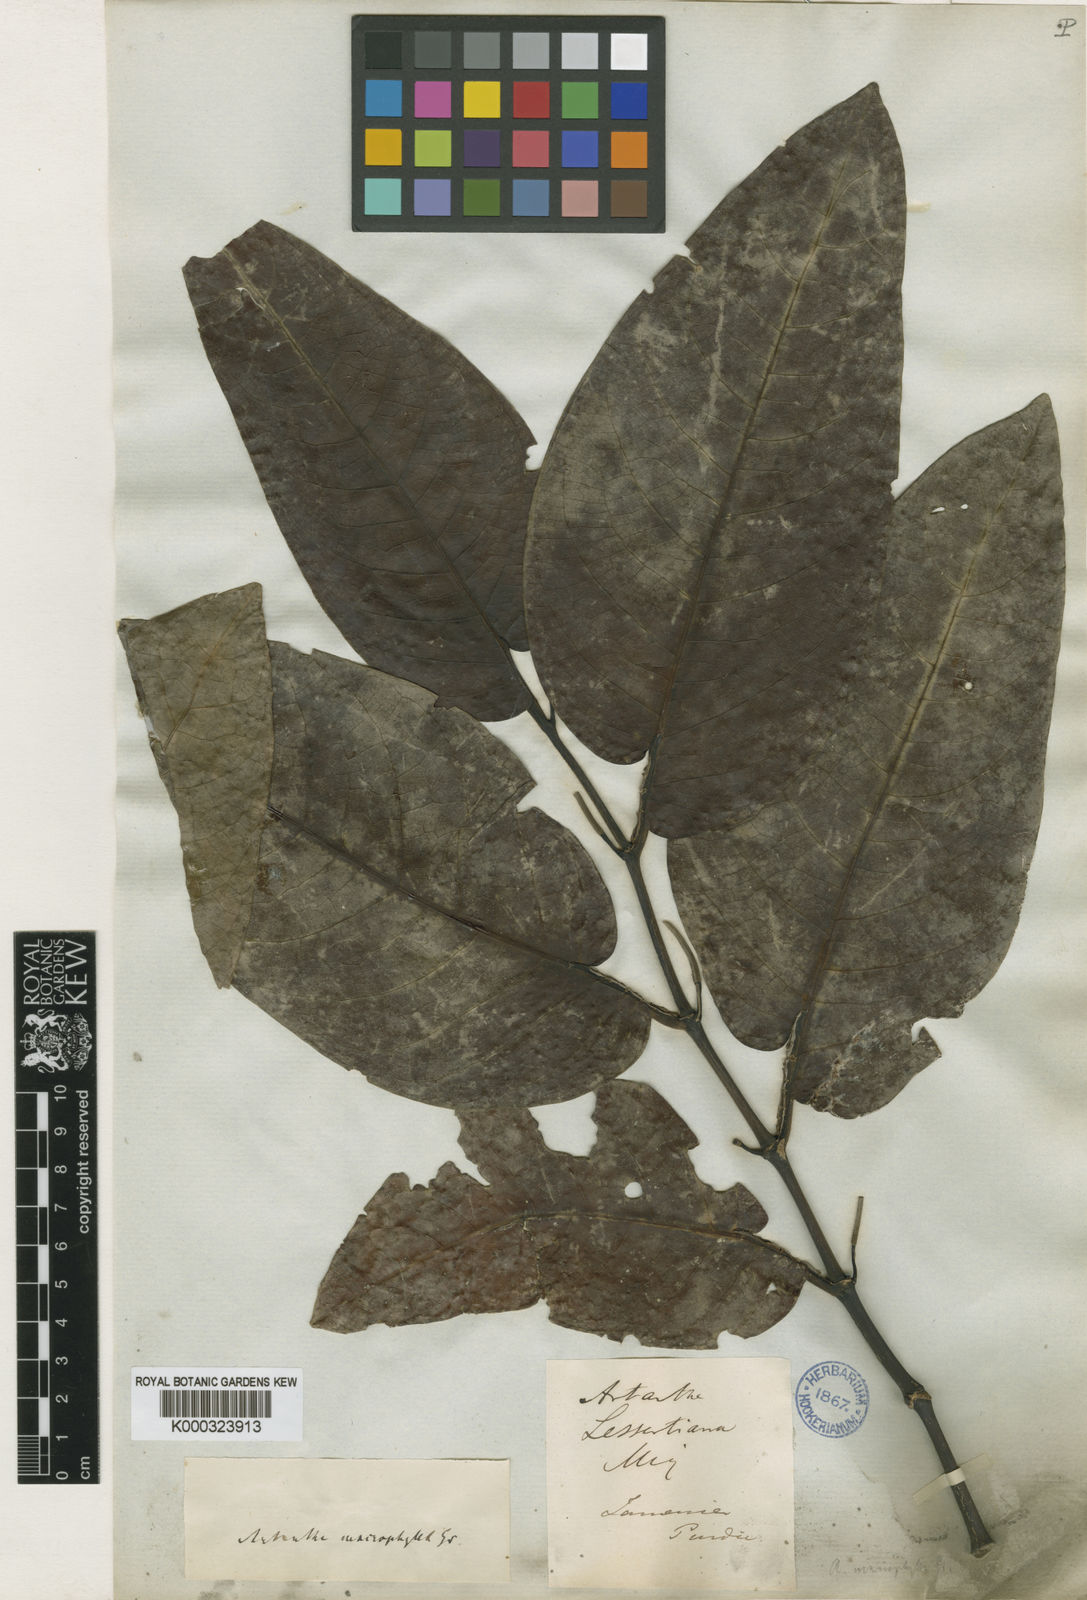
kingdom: Plantae
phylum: Tracheophyta
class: Magnoliopsida
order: Piperales
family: Piperaceae
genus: Piper
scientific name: Piper arboreum
